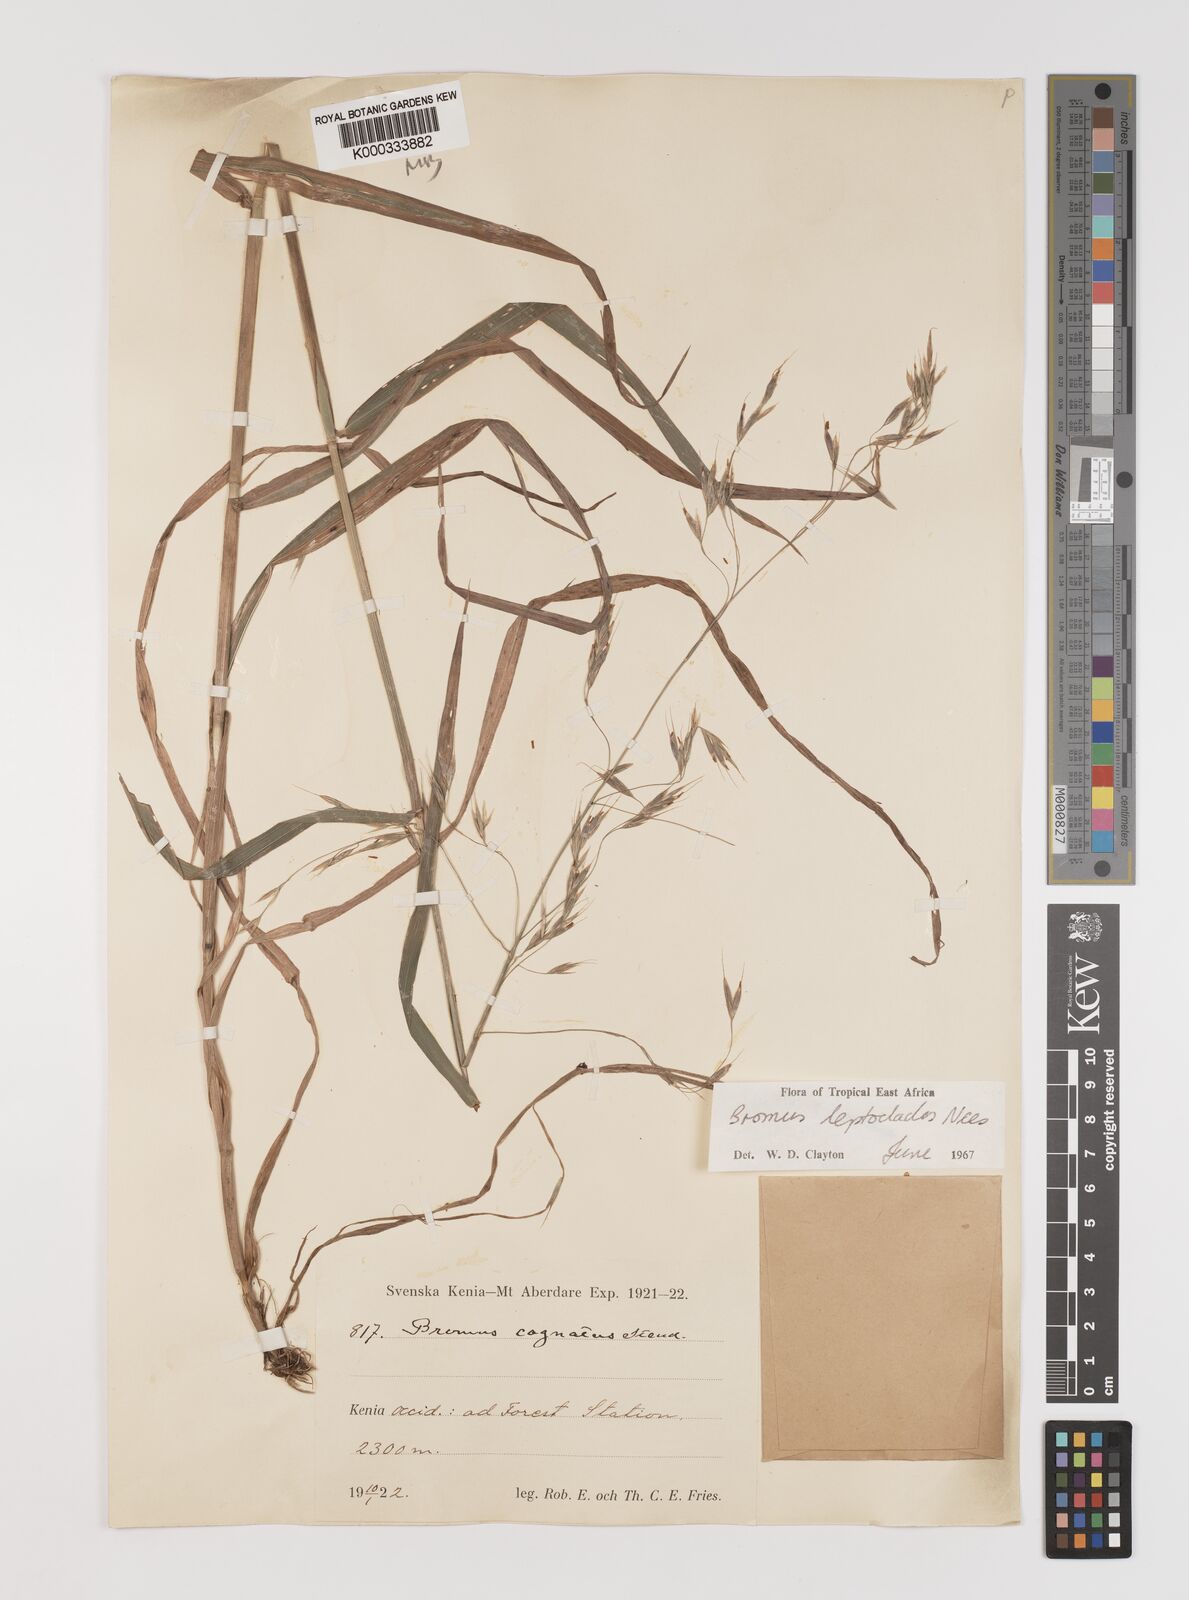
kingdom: Plantae
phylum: Tracheophyta
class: Liliopsida
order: Poales
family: Poaceae
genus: Bromus
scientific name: Bromus leptoclados
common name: Mountain bromegrass
